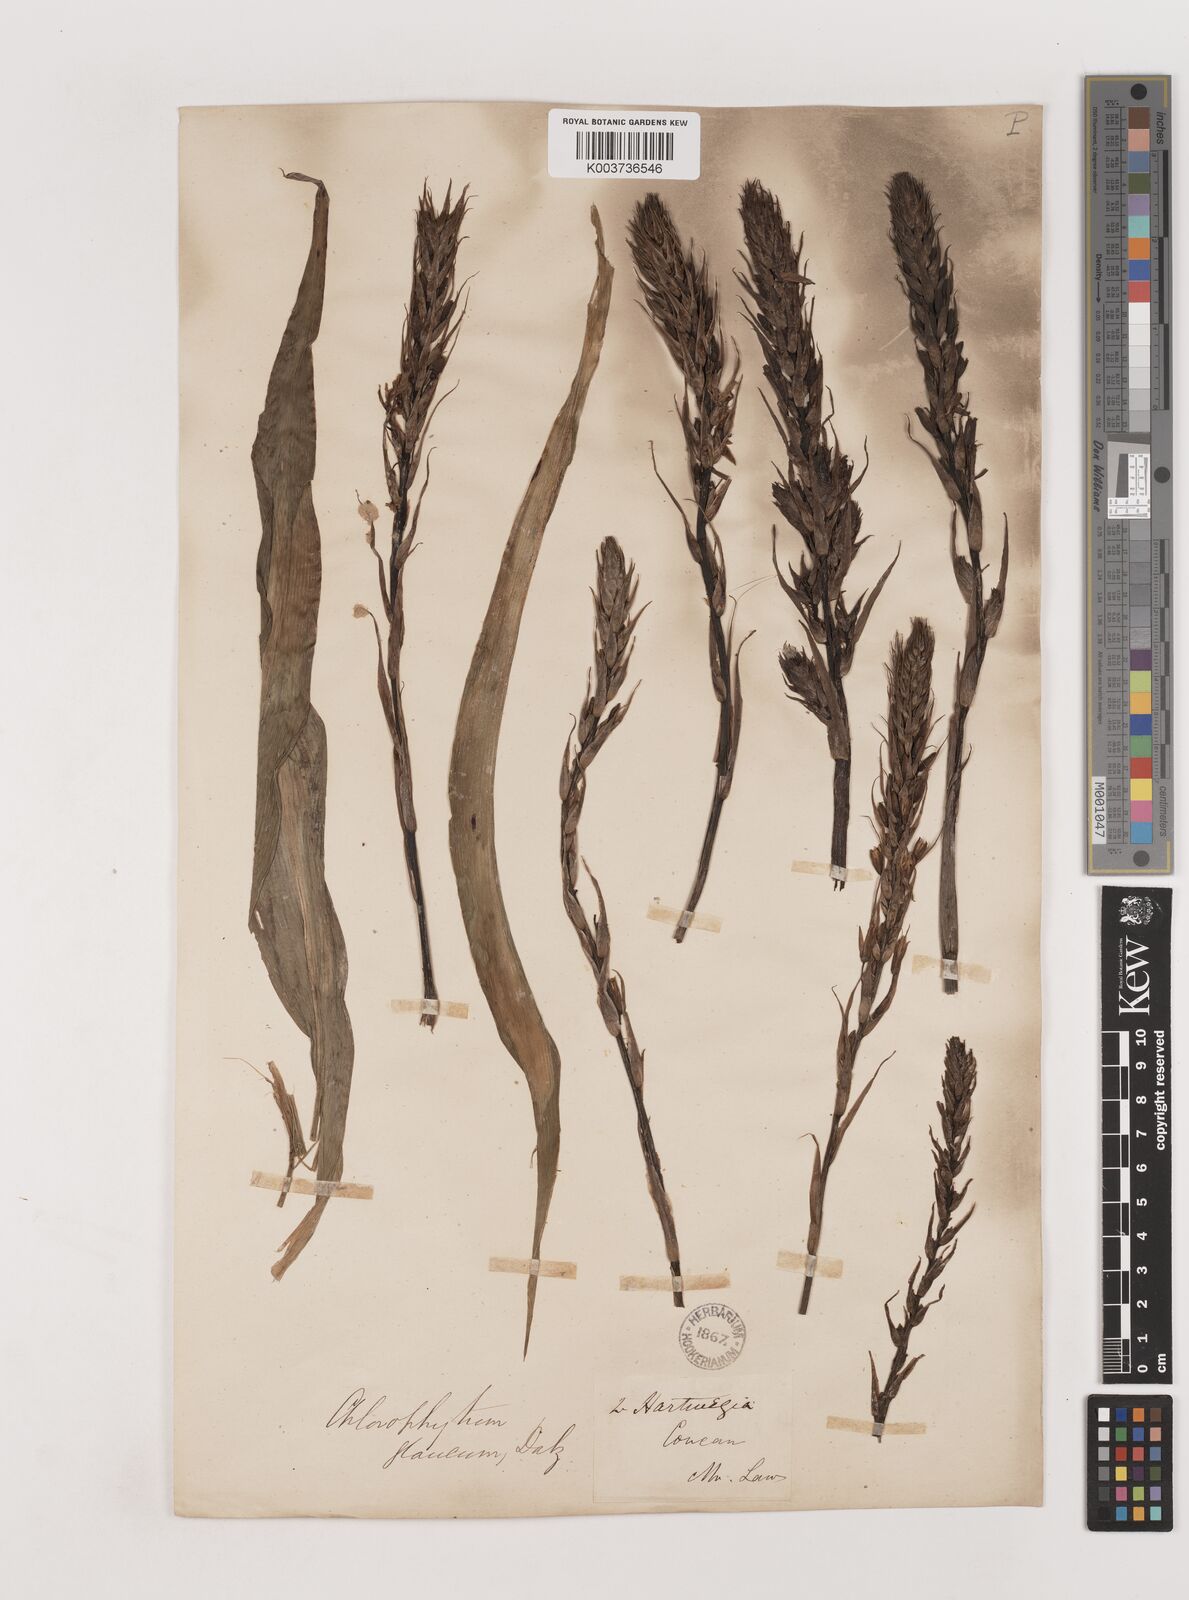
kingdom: Plantae
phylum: Tracheophyta
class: Liliopsida
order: Asparagales
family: Asparagaceae
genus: Chlorophytum
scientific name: Chlorophytum glaucum
